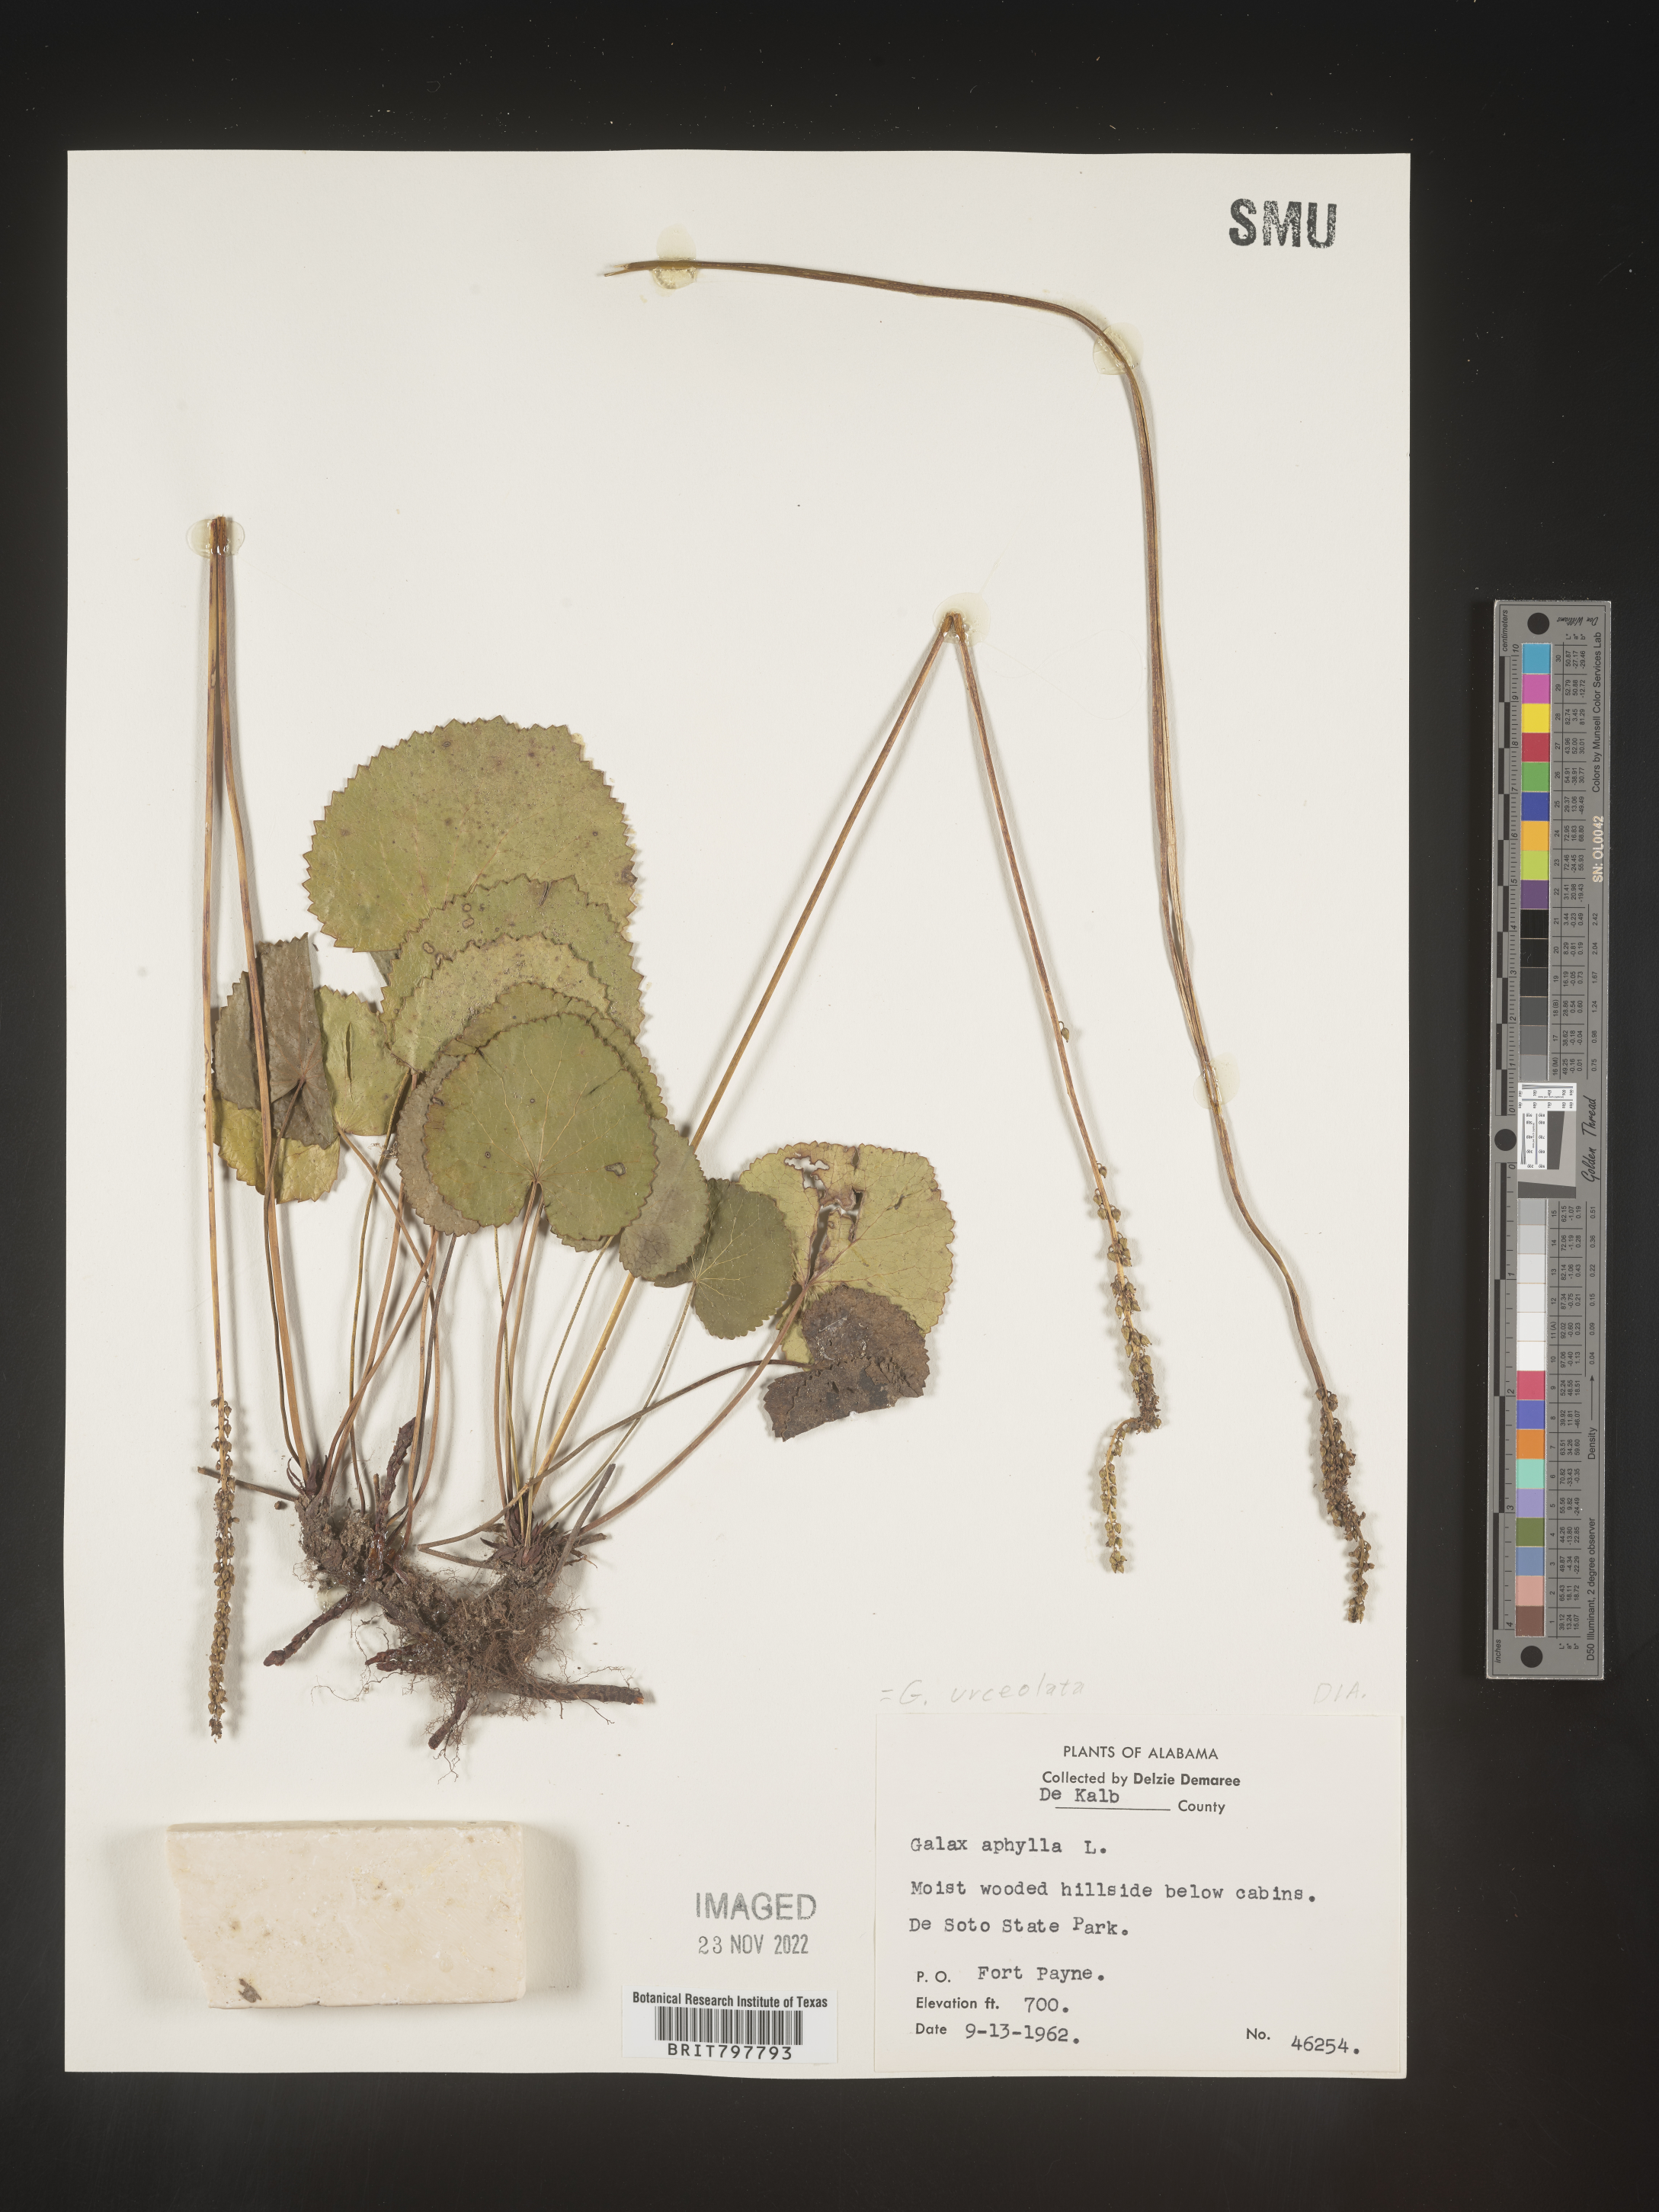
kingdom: Plantae
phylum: Tracheophyta
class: Magnoliopsida
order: Ericales
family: Diapensiaceae
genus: Galax
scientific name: Galax
